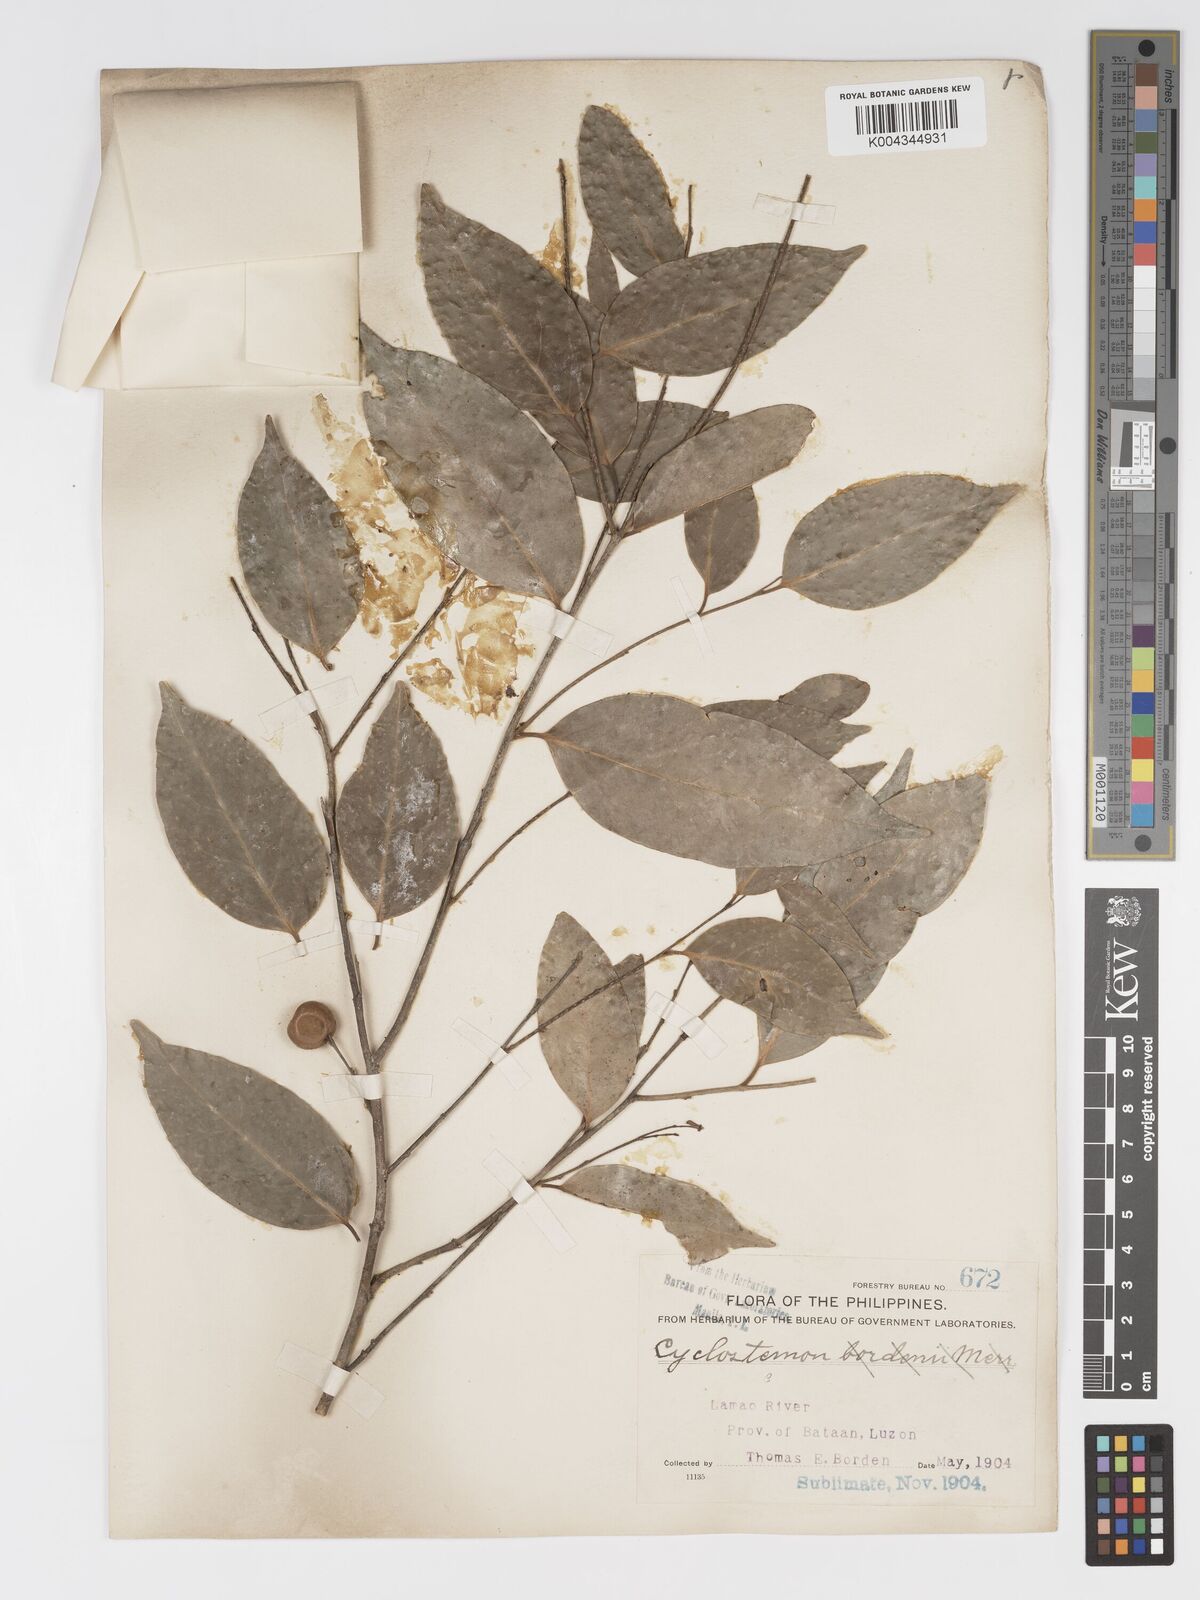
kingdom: Plantae
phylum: Tracheophyta
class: Magnoliopsida
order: Malpighiales
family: Putranjivaceae
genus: Drypetes
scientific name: Drypetes microphylla
